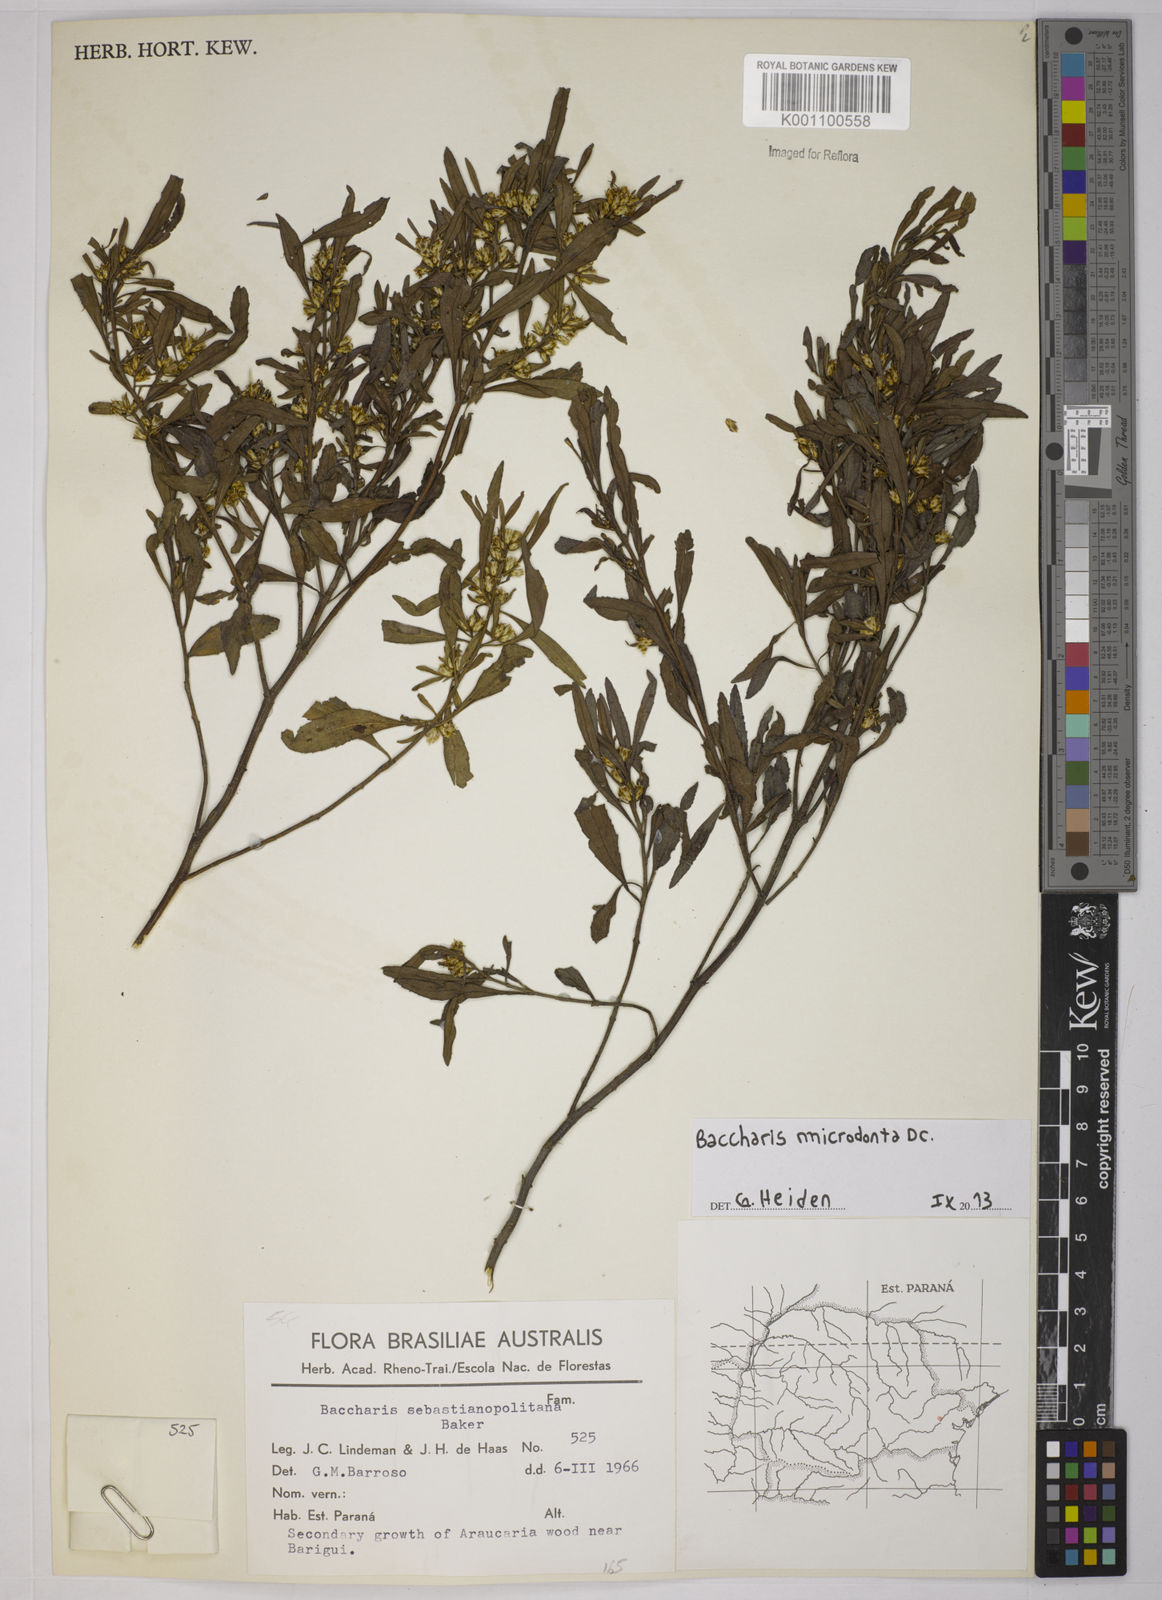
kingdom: Plantae
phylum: Tracheophyta
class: Magnoliopsida
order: Asterales
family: Asteraceae
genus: Baccharis
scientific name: Baccharis microdonta
